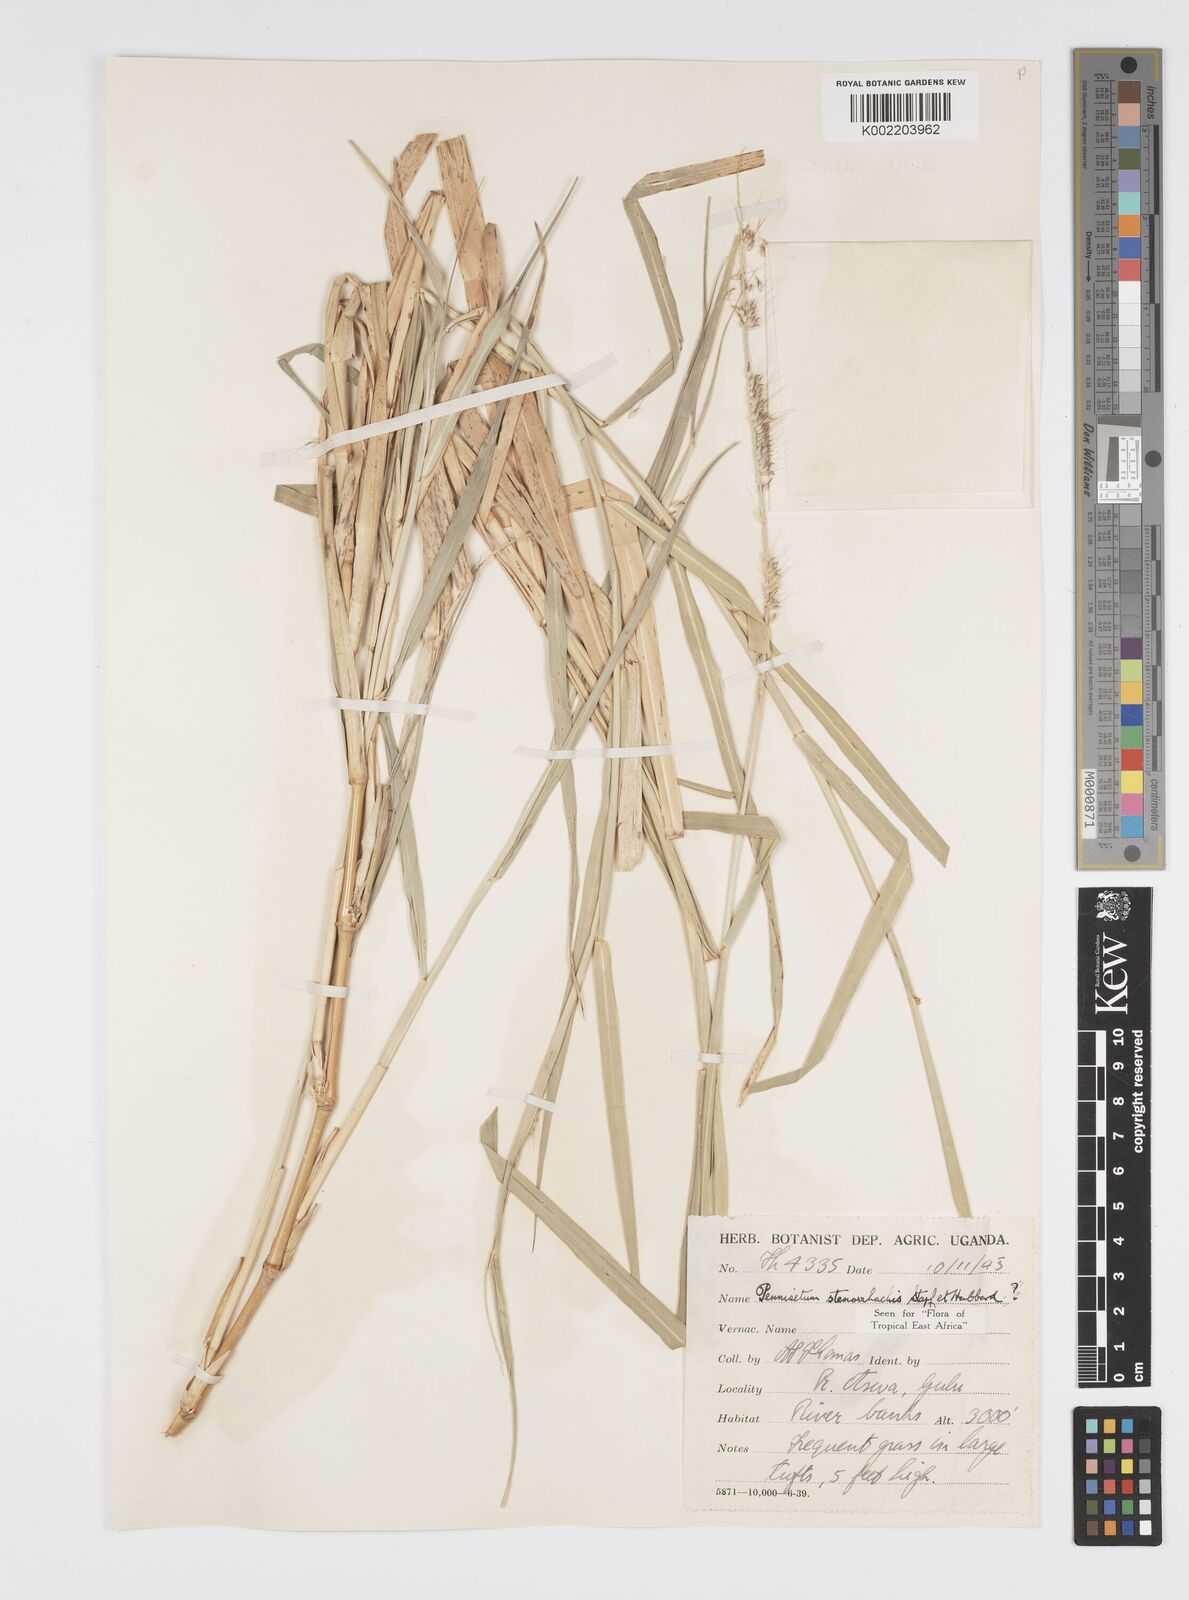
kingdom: Plantae
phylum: Tracheophyta
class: Liliopsida
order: Poales
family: Poaceae
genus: Cenchrus
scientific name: Cenchrus caudatus
